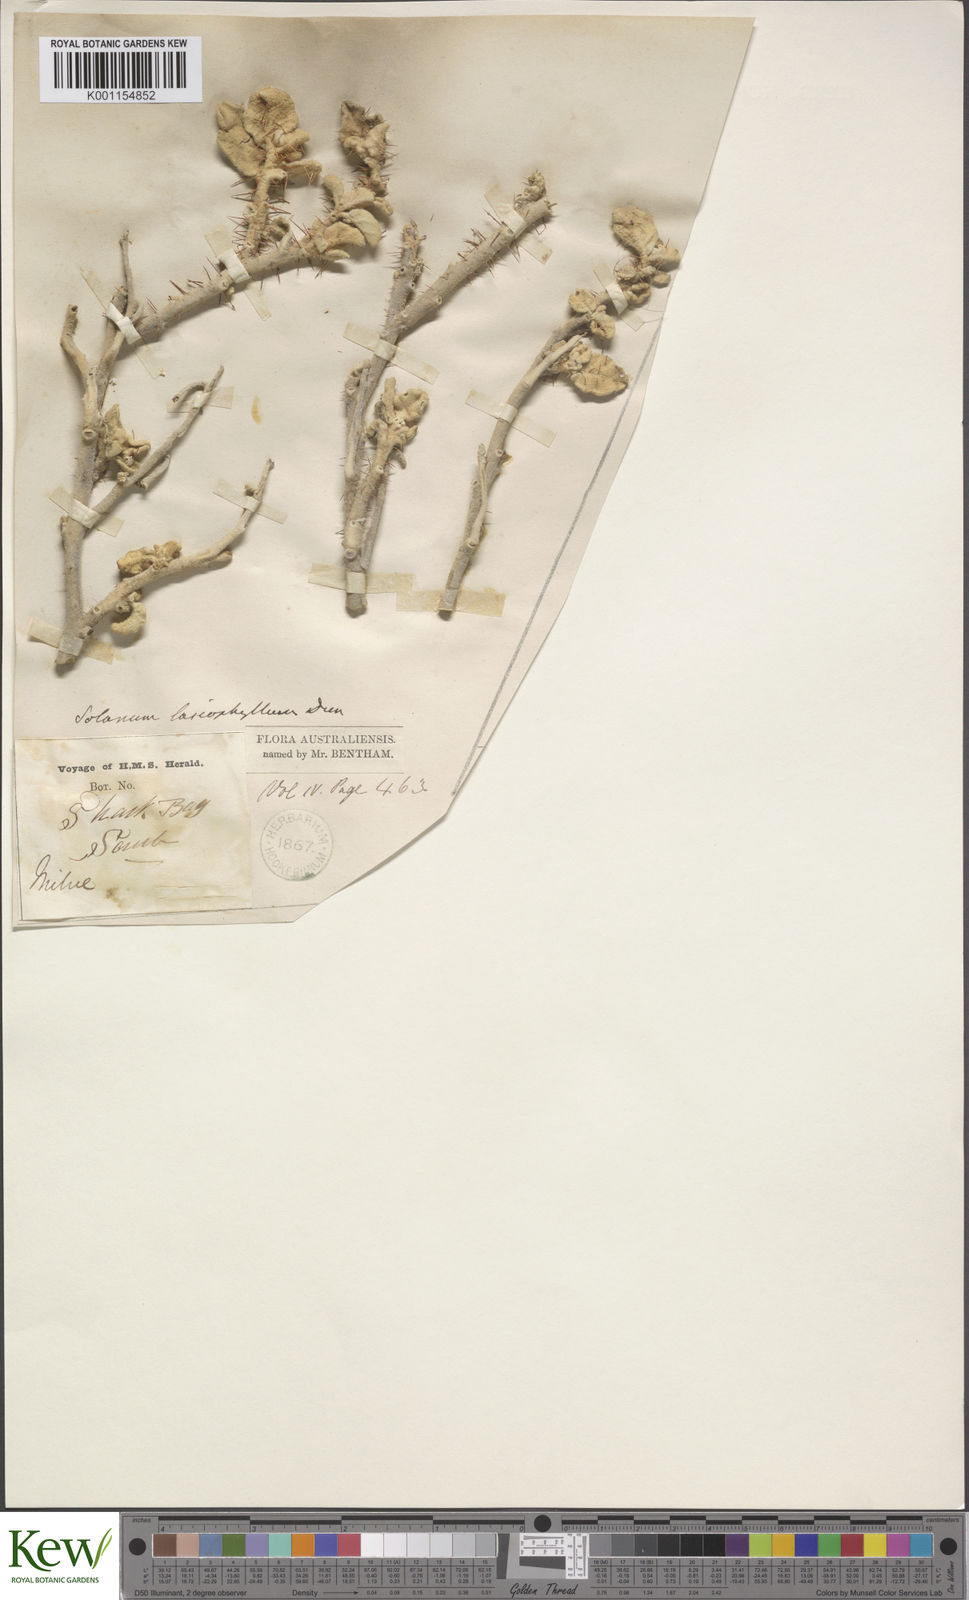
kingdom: Plantae
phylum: Tracheophyta
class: Magnoliopsida
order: Solanales
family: Solanaceae
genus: Solanum
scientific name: Solanum lasiophyllum
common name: Flannelbush
